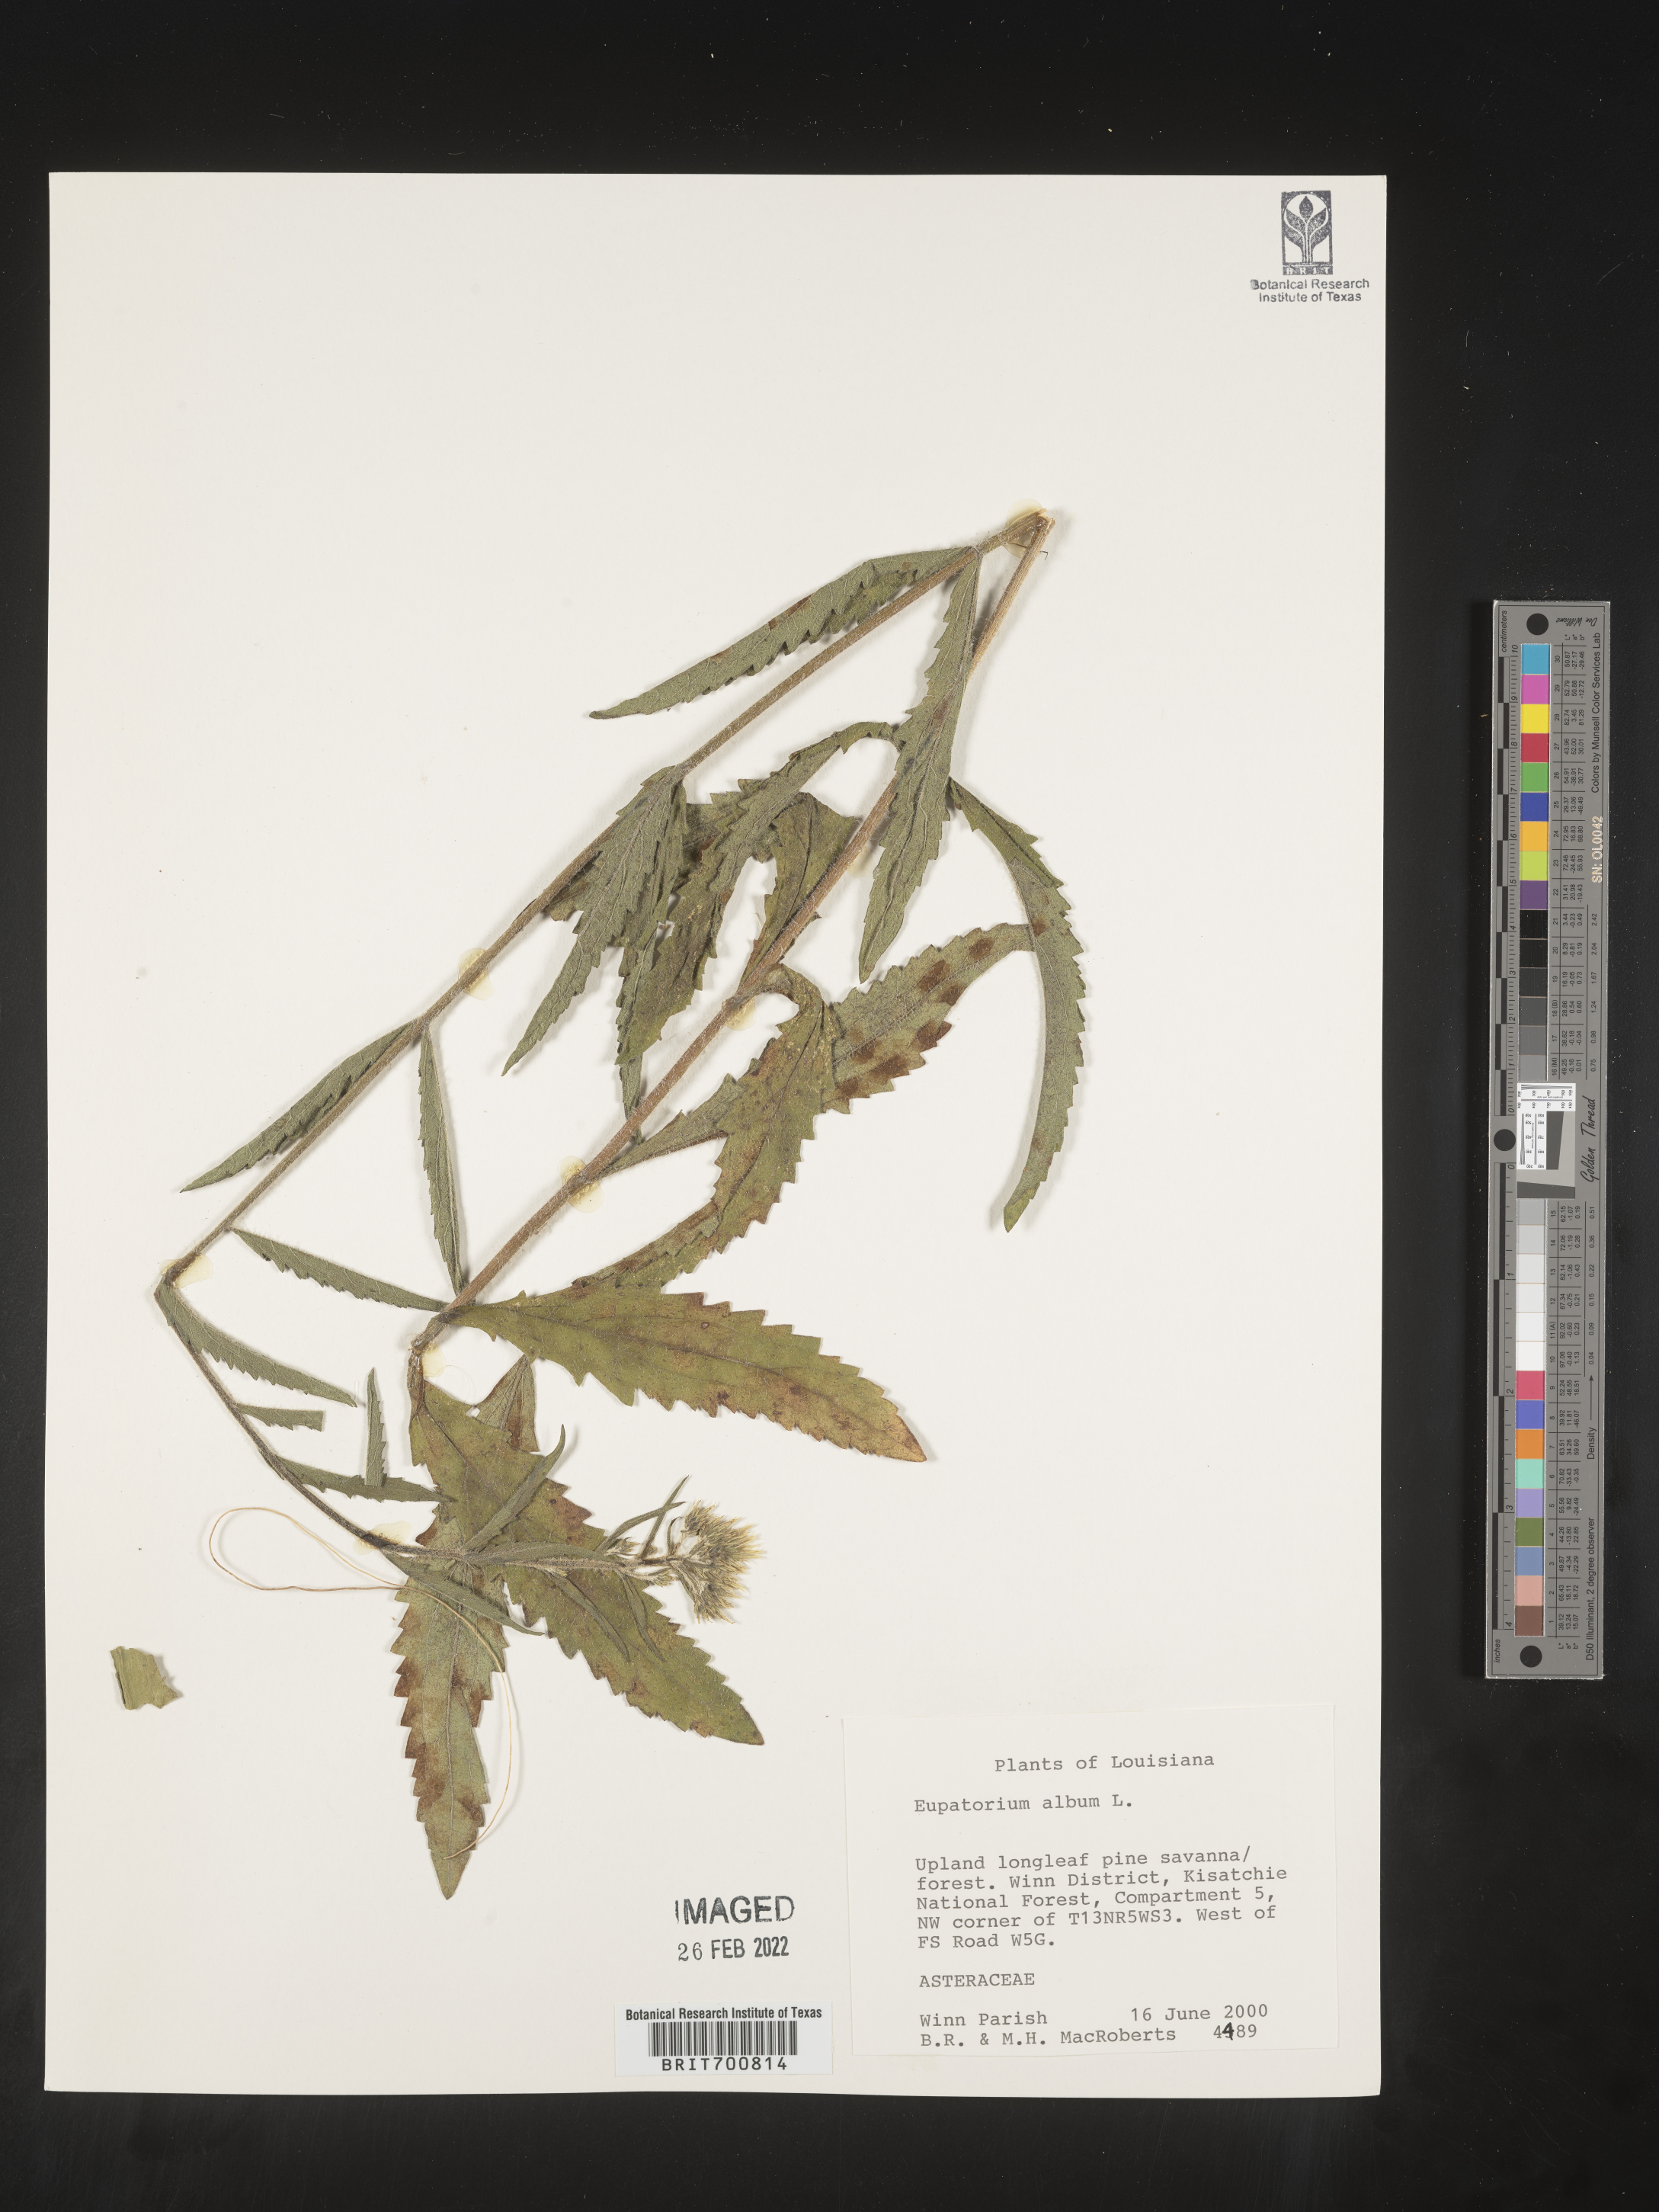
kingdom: Plantae
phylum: Tracheophyta
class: Magnoliopsida
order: Asterales
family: Asteraceae
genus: Eupatorium
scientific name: Eupatorium album
